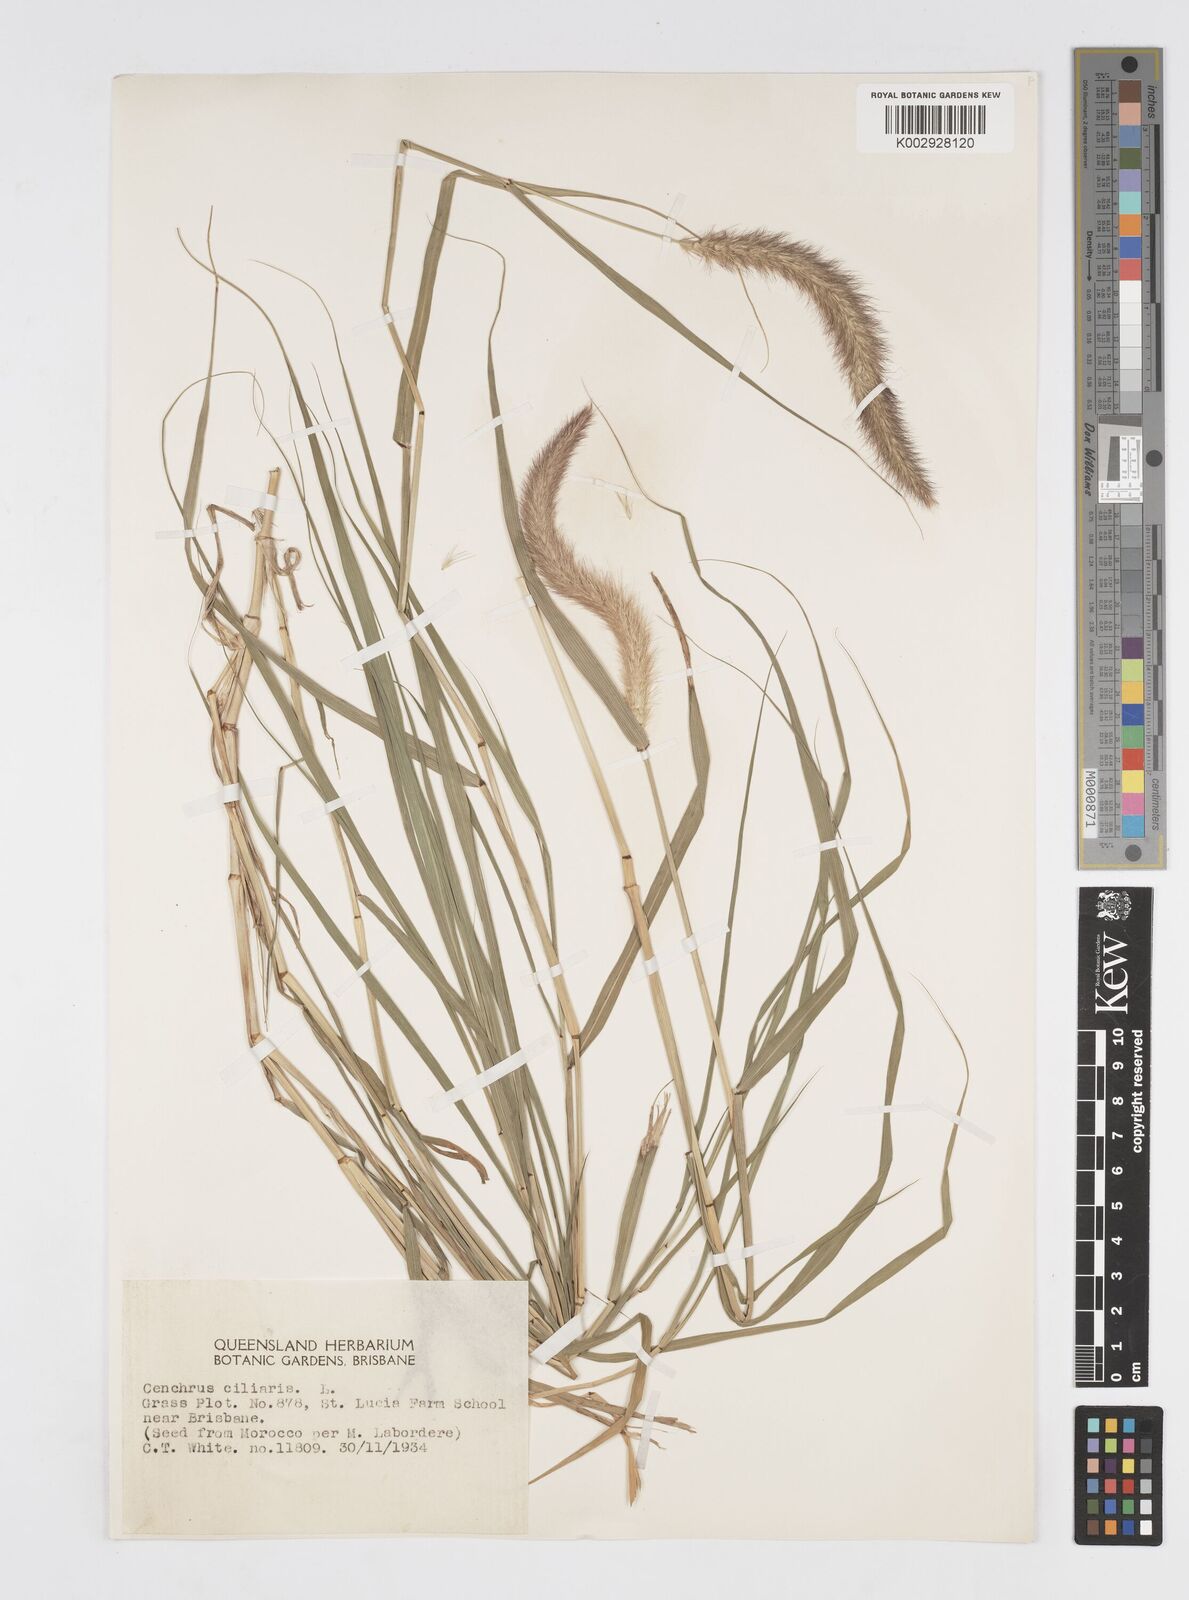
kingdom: Plantae
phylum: Tracheophyta
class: Liliopsida
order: Poales
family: Poaceae
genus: Cenchrus
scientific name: Cenchrus ciliaris
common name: Buffelgrass
